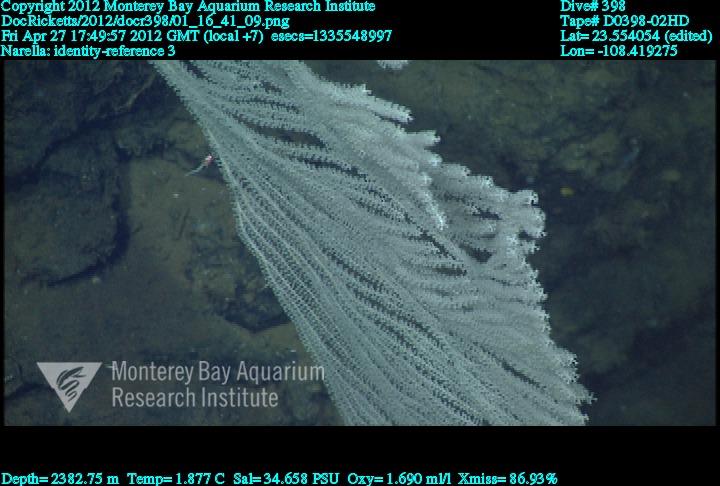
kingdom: Animalia
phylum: Cnidaria
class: Anthozoa
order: Scleralcyonacea
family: Primnoidae
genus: Narella
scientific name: Narella
